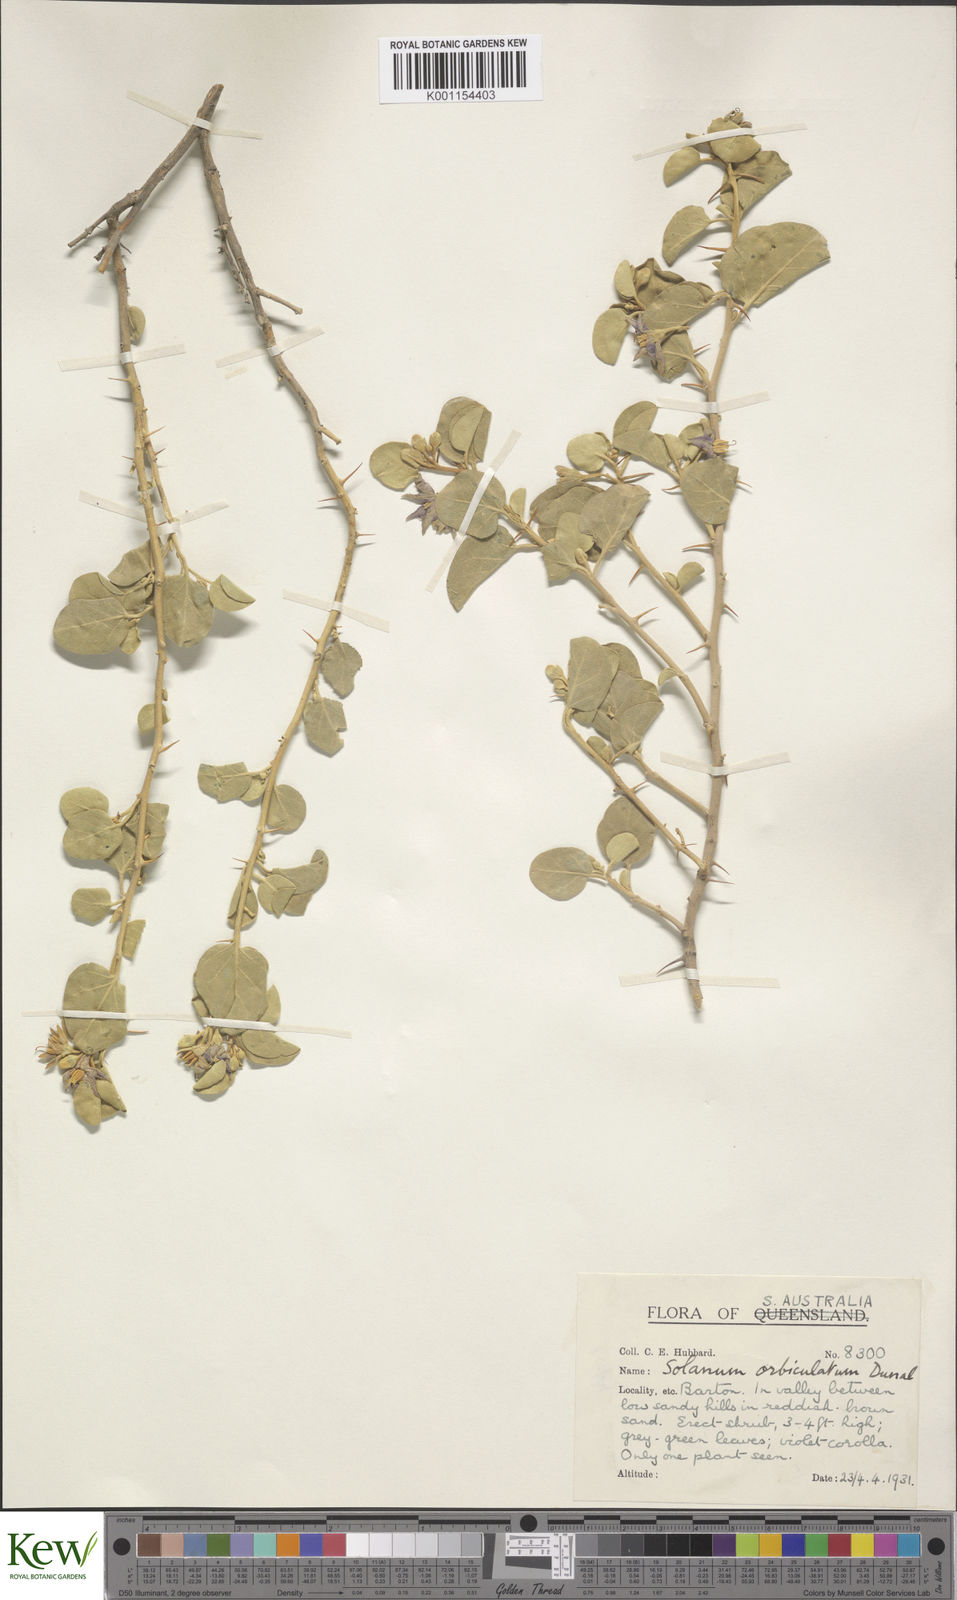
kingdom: Plantae
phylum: Tracheophyta
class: Magnoliopsida
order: Solanales
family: Solanaceae
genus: Solanum
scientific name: Solanum orbiculatum
